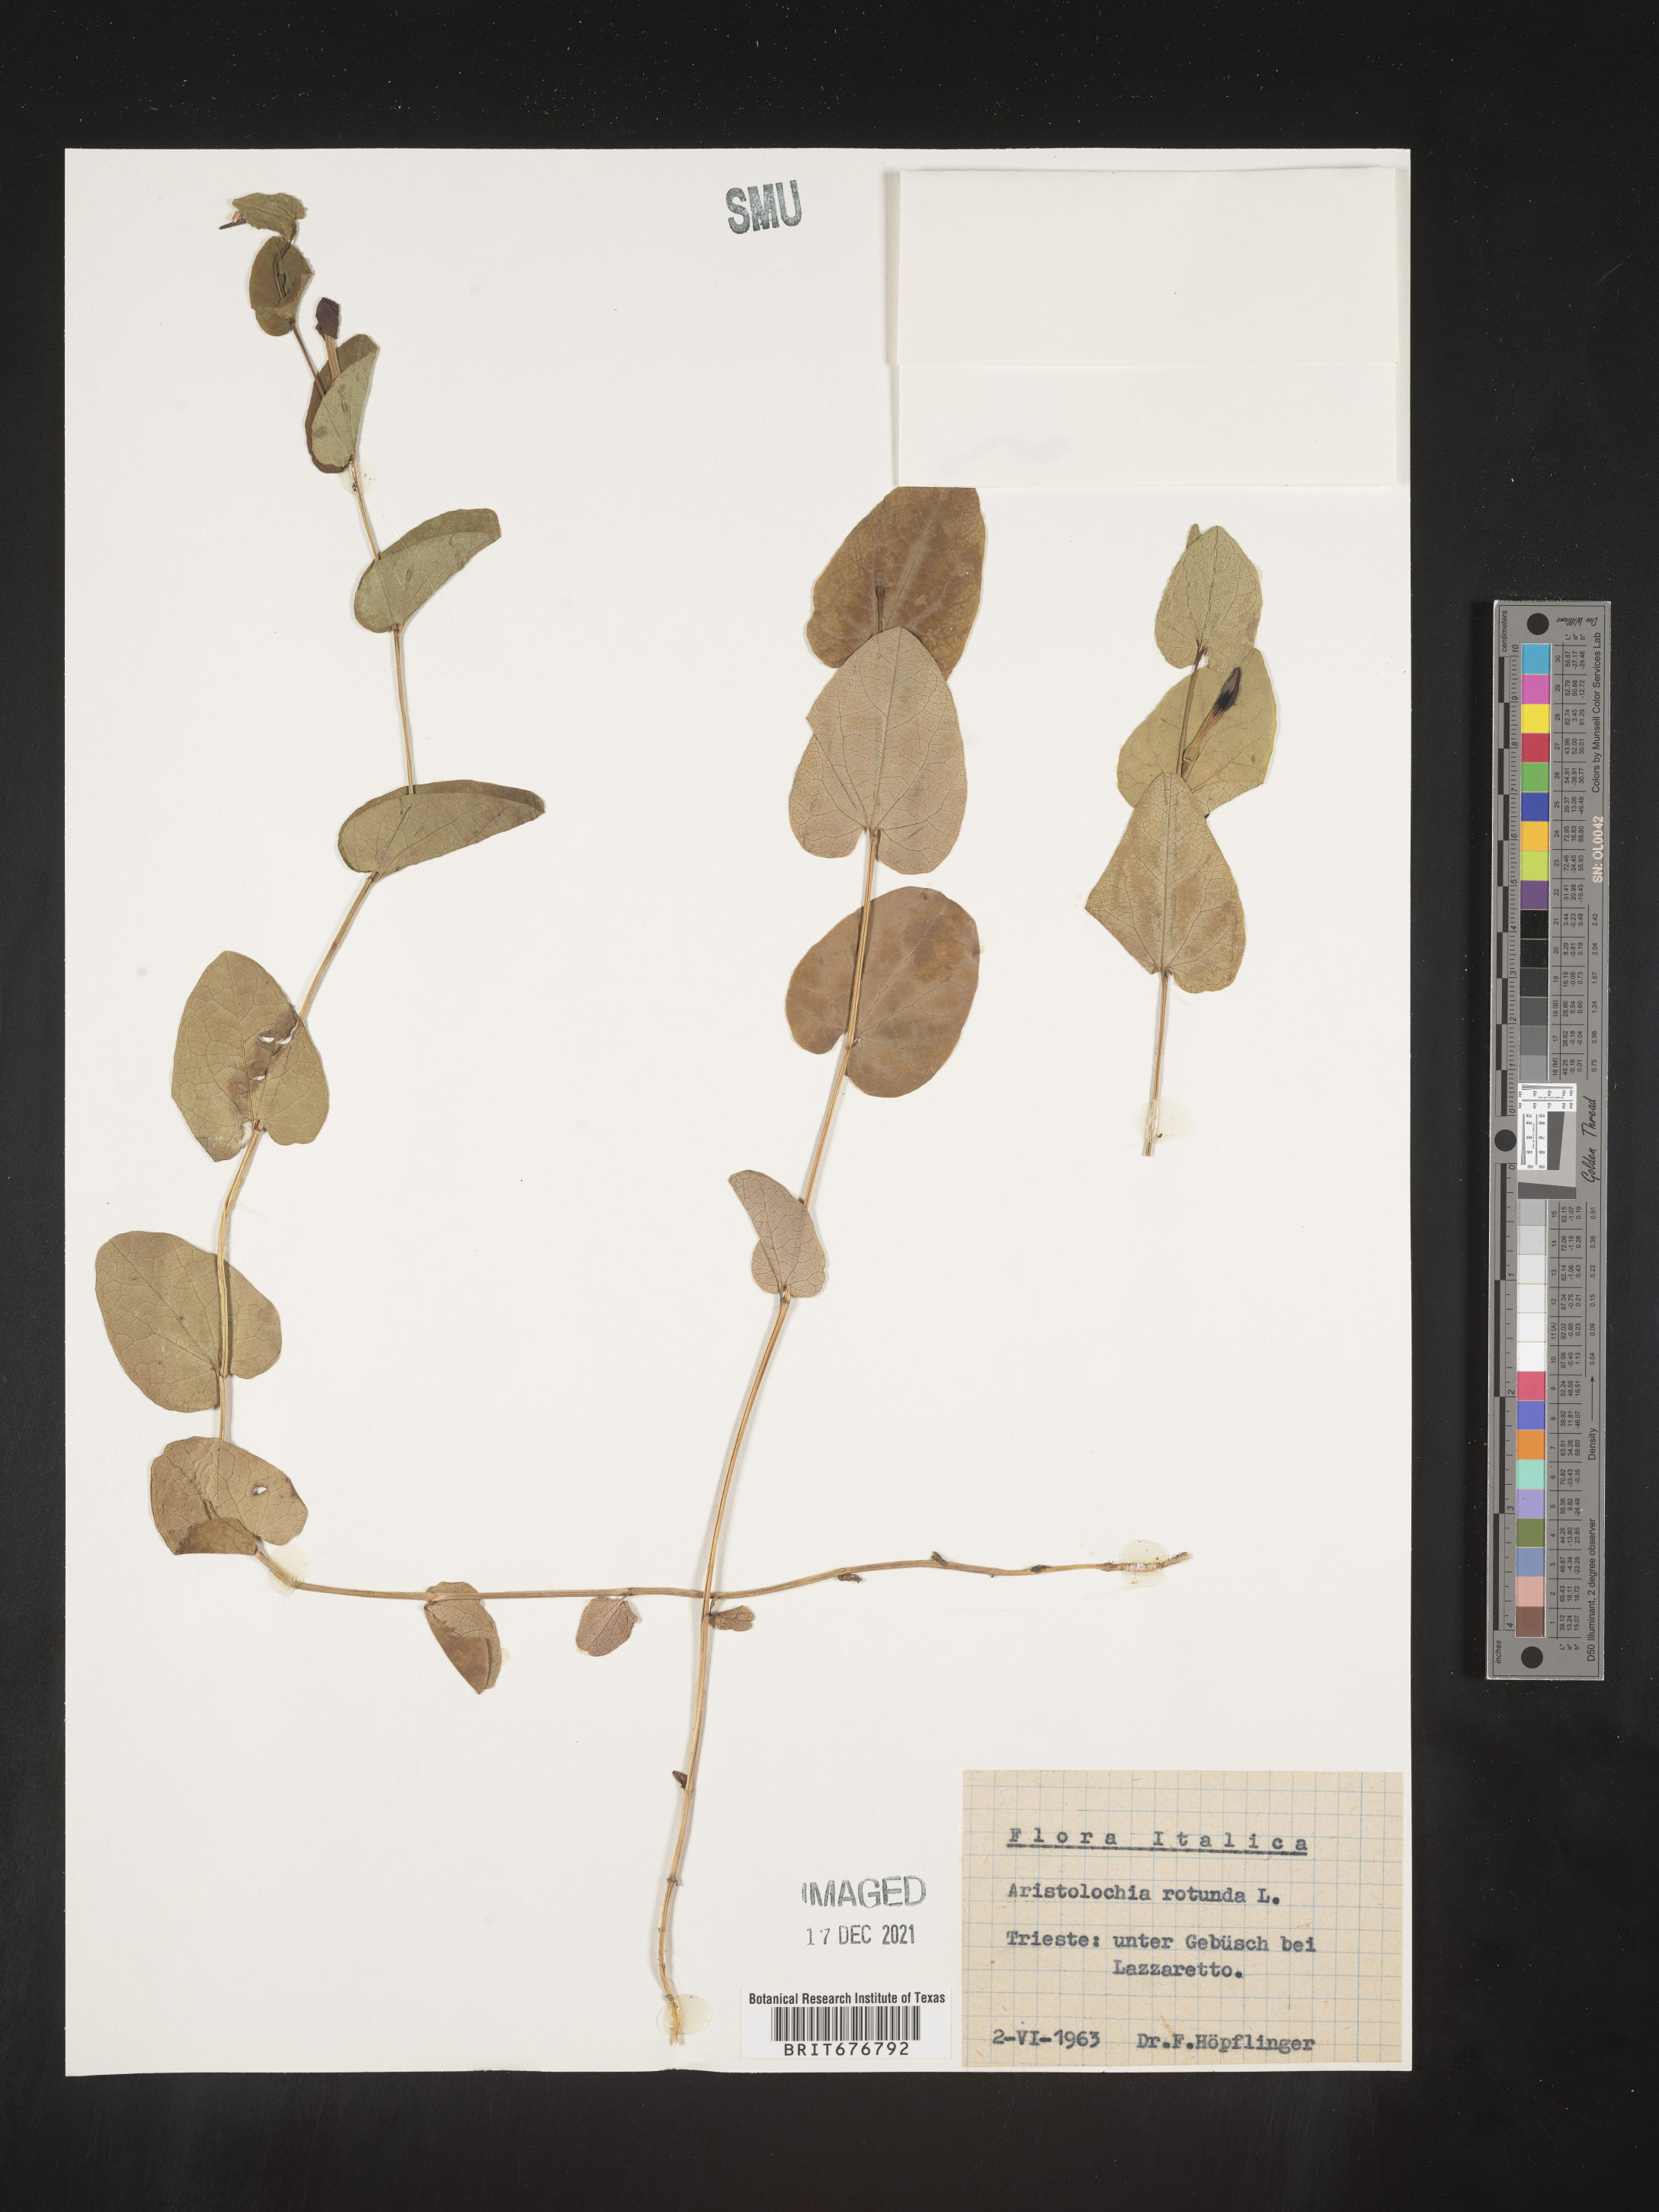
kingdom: Plantae
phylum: Tracheophyta
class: Magnoliopsida
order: Piperales
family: Aristolochiaceae
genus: Aristolochia
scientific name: Aristolochia
